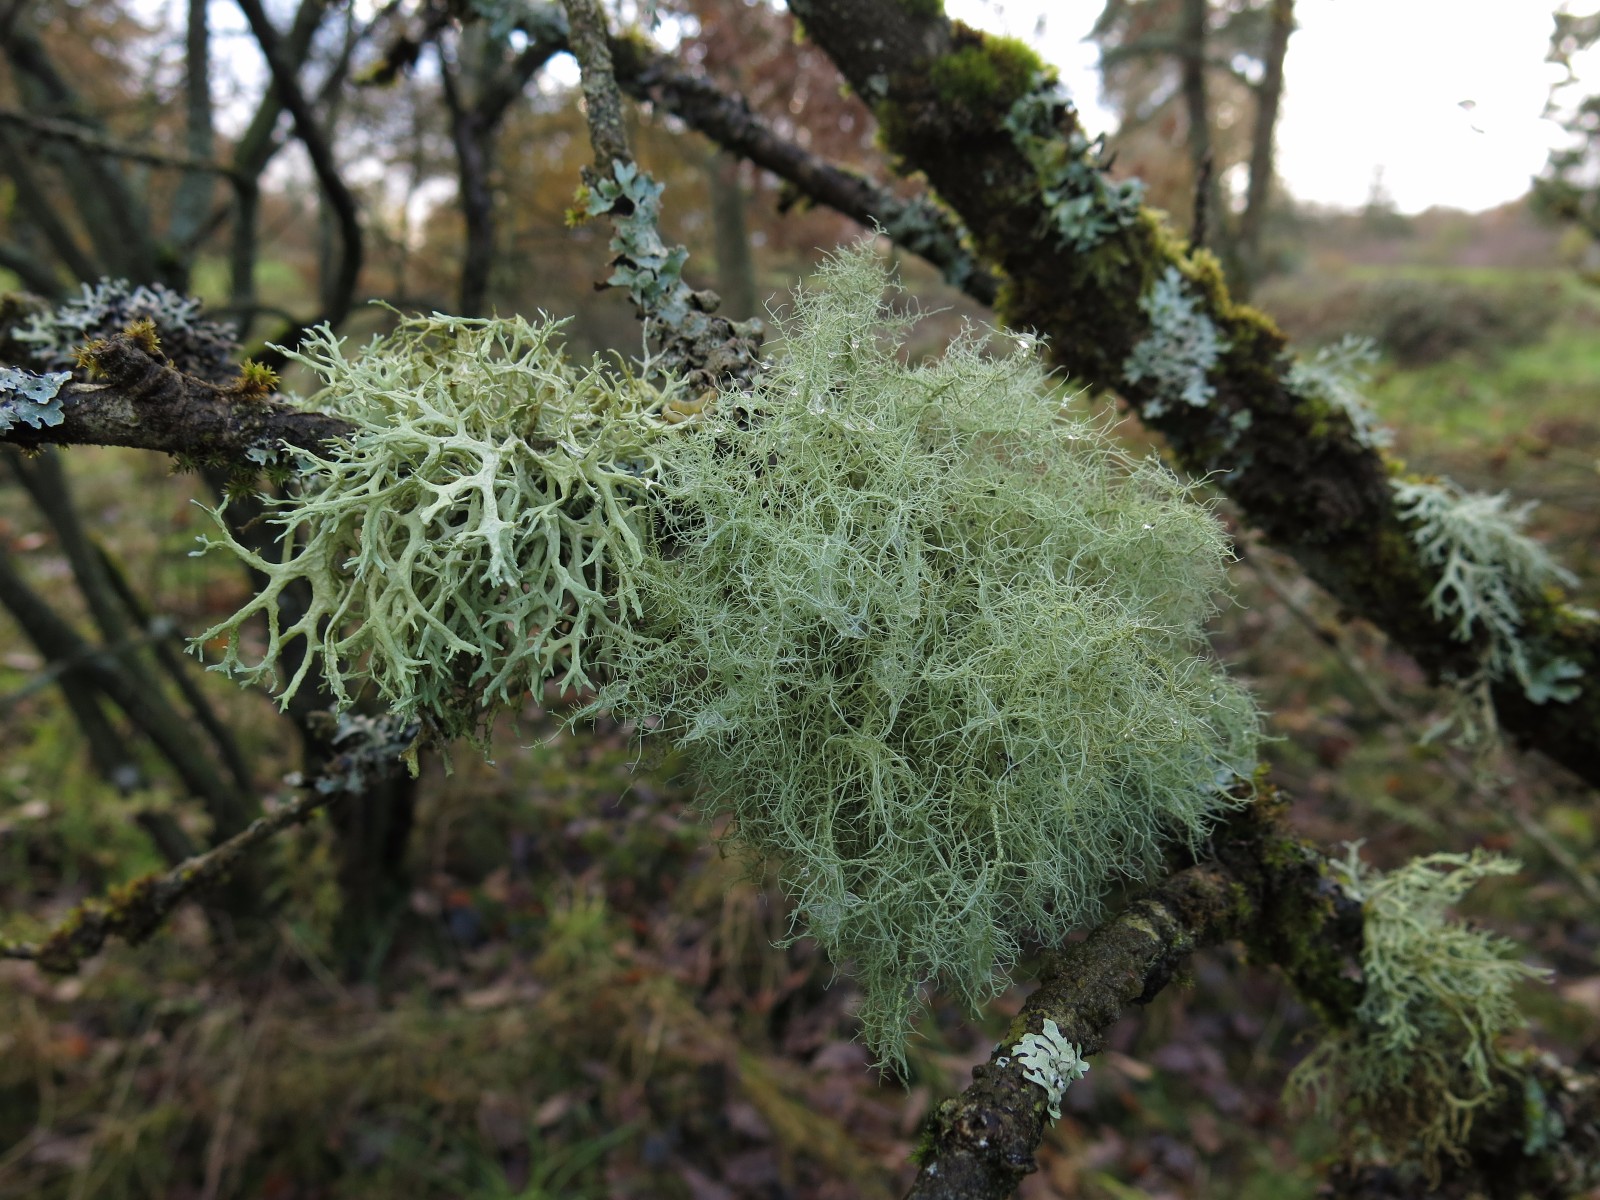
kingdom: Fungi
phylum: Ascomycota
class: Lecanoromycetes
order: Lecanorales
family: Parmeliaceae
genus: Usnea
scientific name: Usnea subfloridana
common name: busket skæglav
